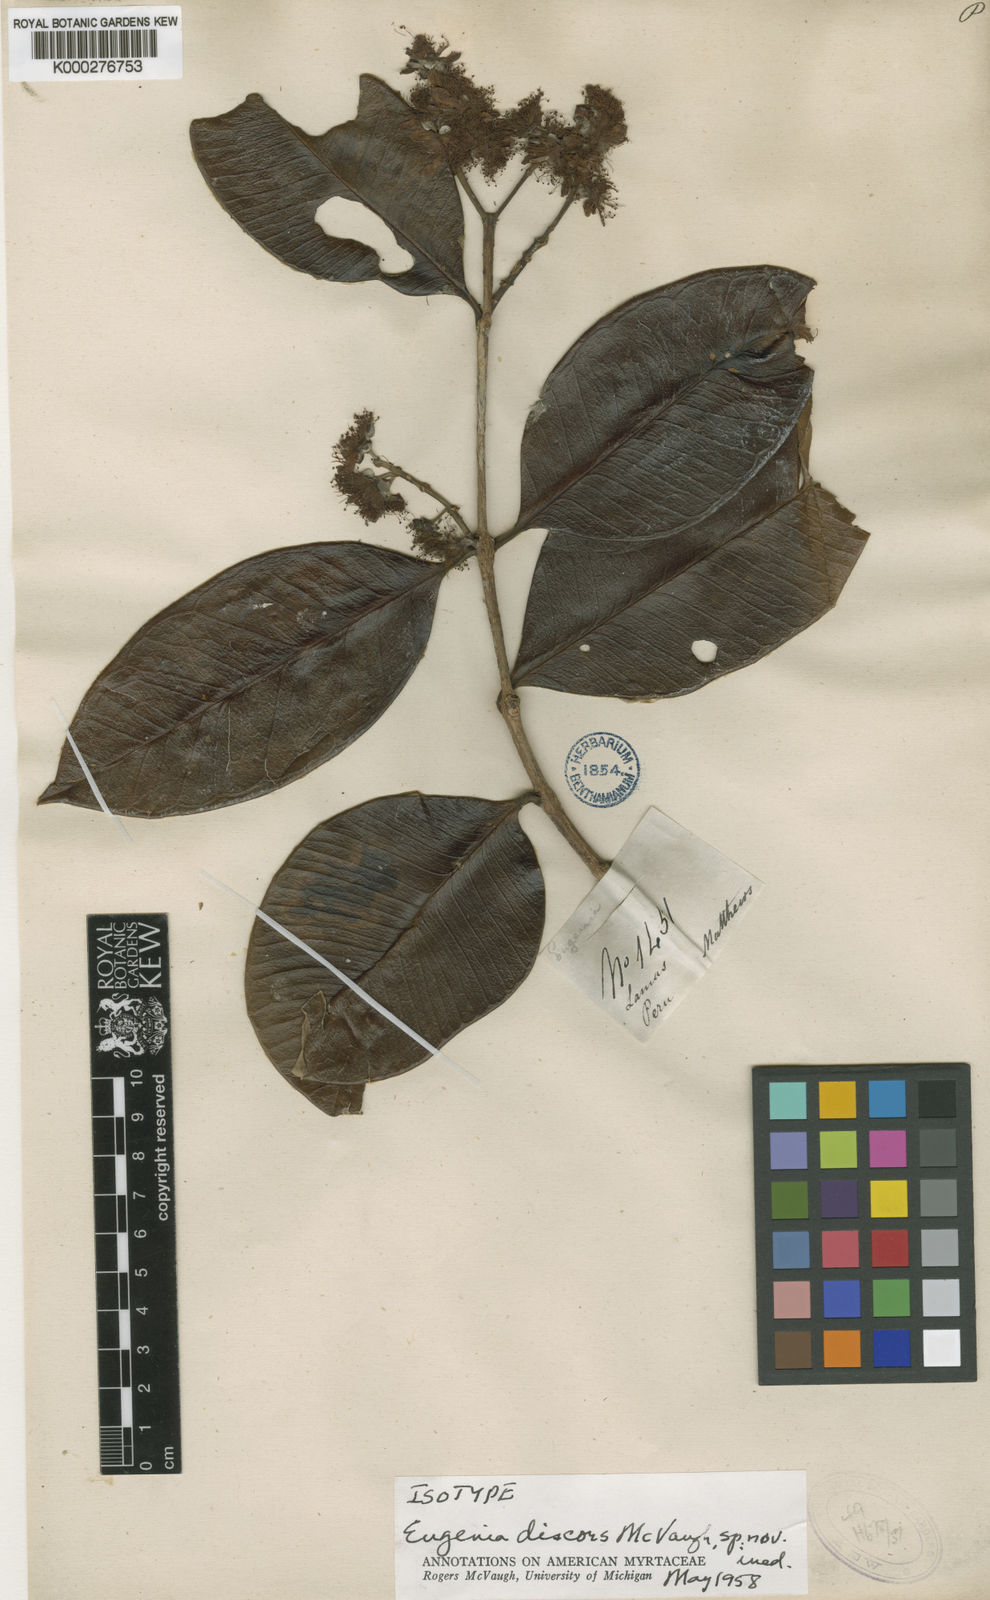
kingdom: Plantae
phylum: Tracheophyta
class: Magnoliopsida
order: Myrtales
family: Myrtaceae
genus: Eugenia
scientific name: Eugenia discors
